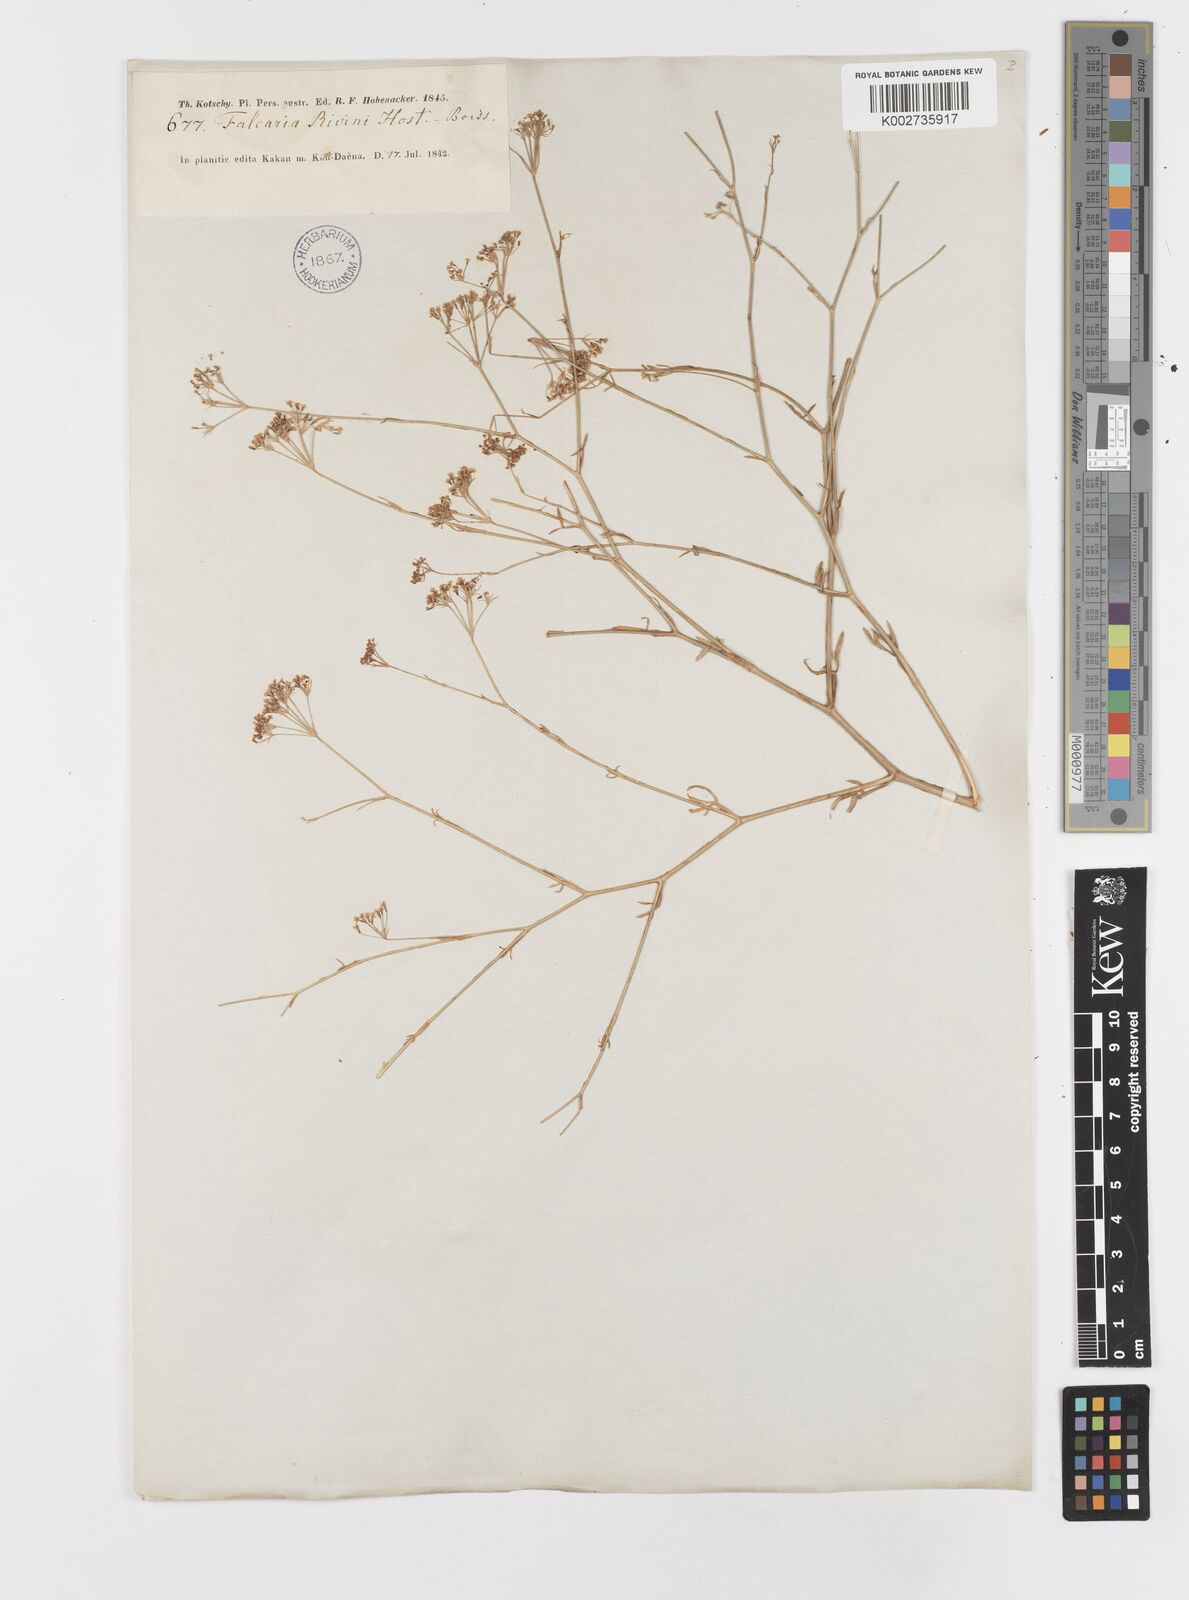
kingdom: Plantae
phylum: Tracheophyta
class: Magnoliopsida
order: Apiales
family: Apiaceae
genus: Falcaria
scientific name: Falcaria vulgaris
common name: Longleaf
